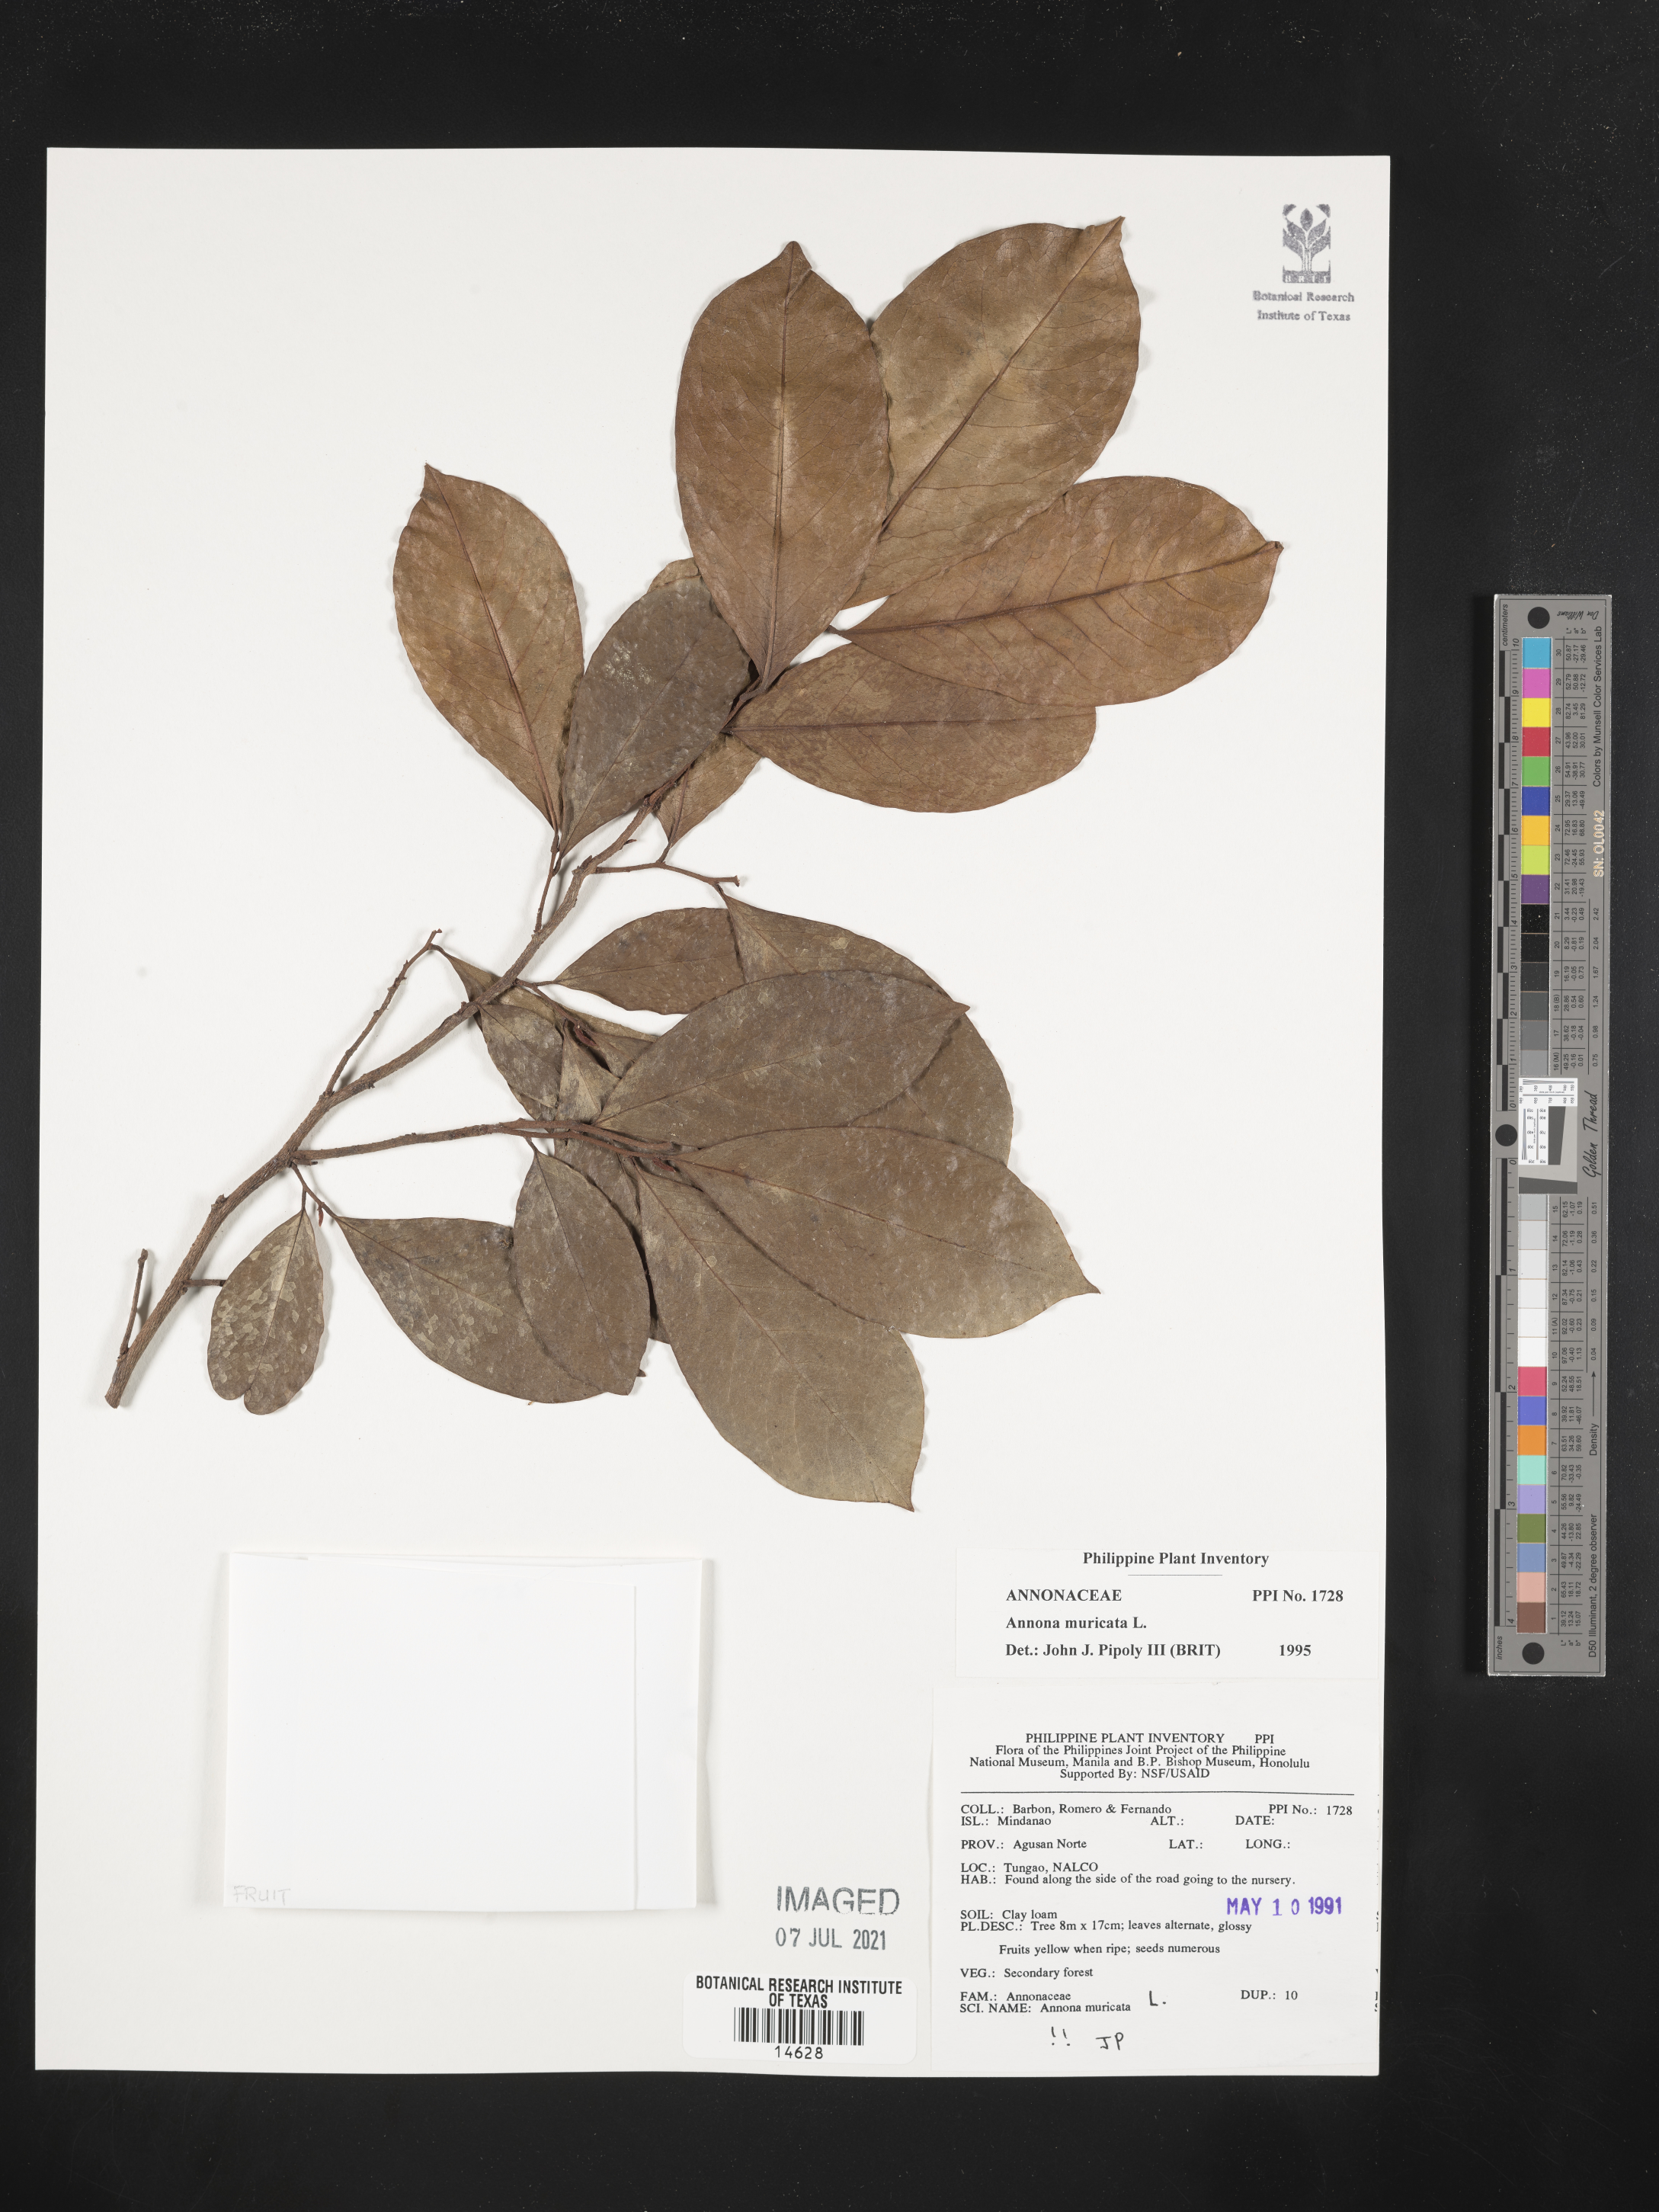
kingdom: Plantae
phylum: Tracheophyta
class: Magnoliopsida
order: Magnoliales
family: Annonaceae
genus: Annona
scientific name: Annona muricata
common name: Soursop
